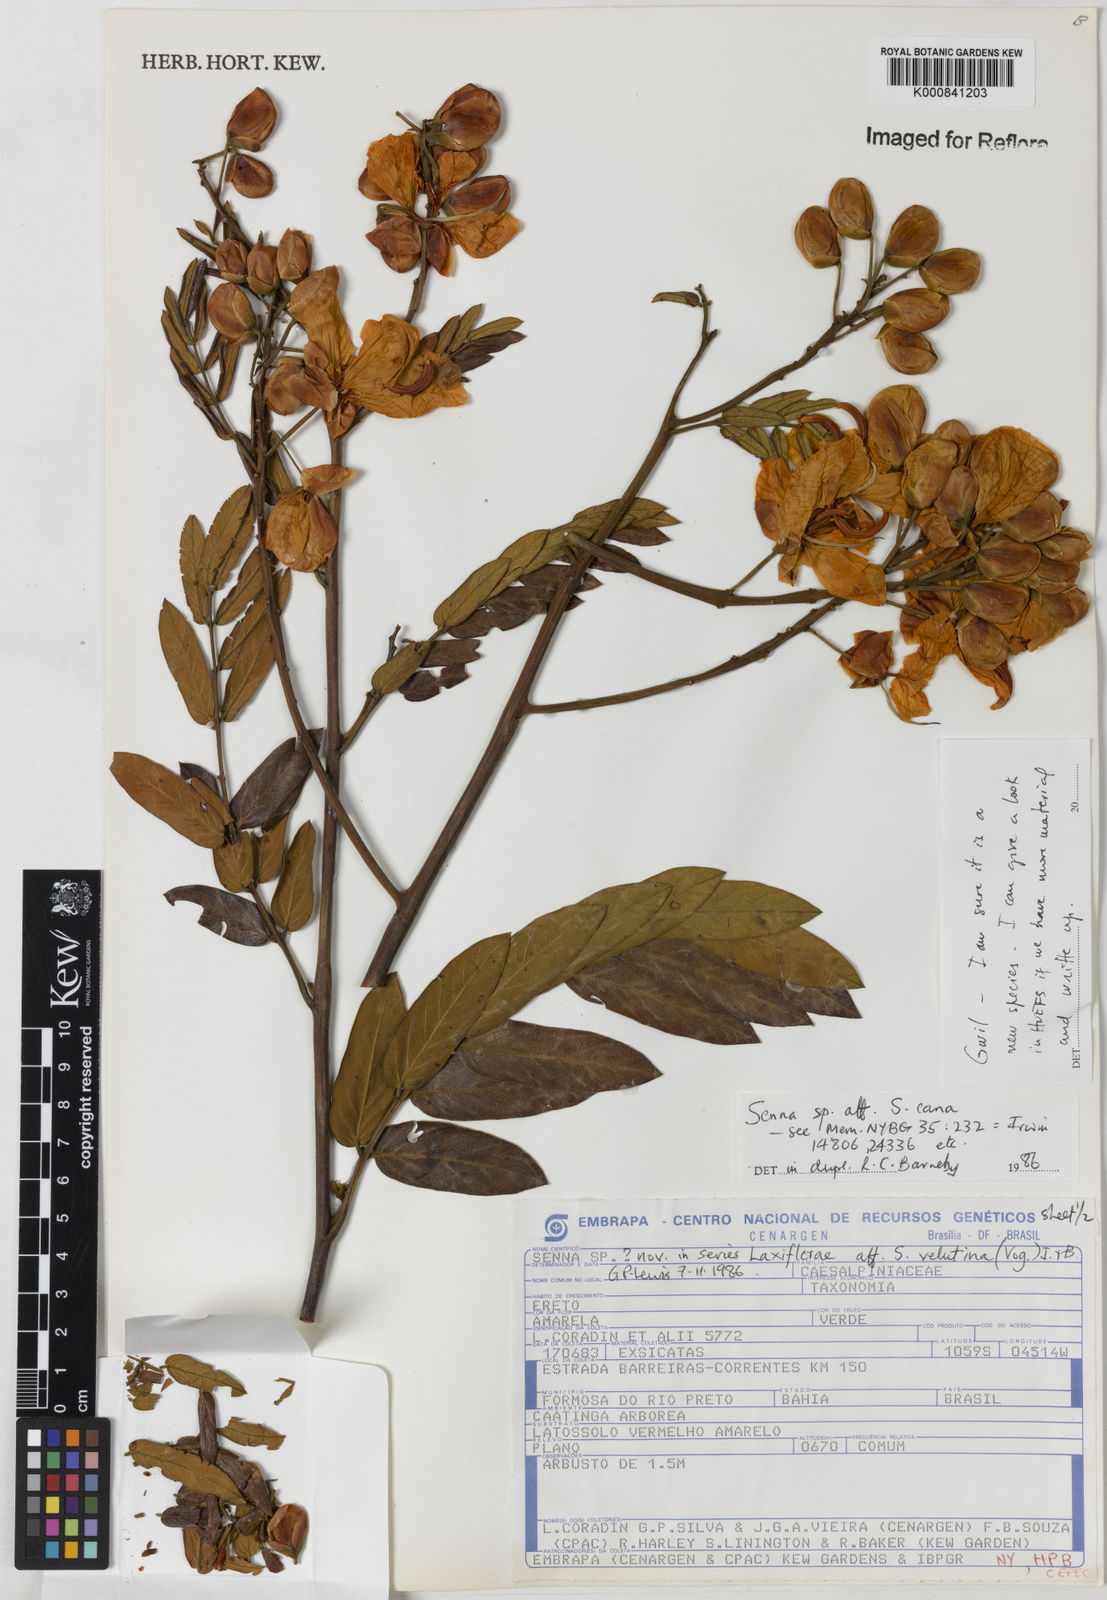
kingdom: Plantae
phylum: Tracheophyta
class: Magnoliopsida
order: Fabales
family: Fabaceae
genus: Senna
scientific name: Senna velutina
